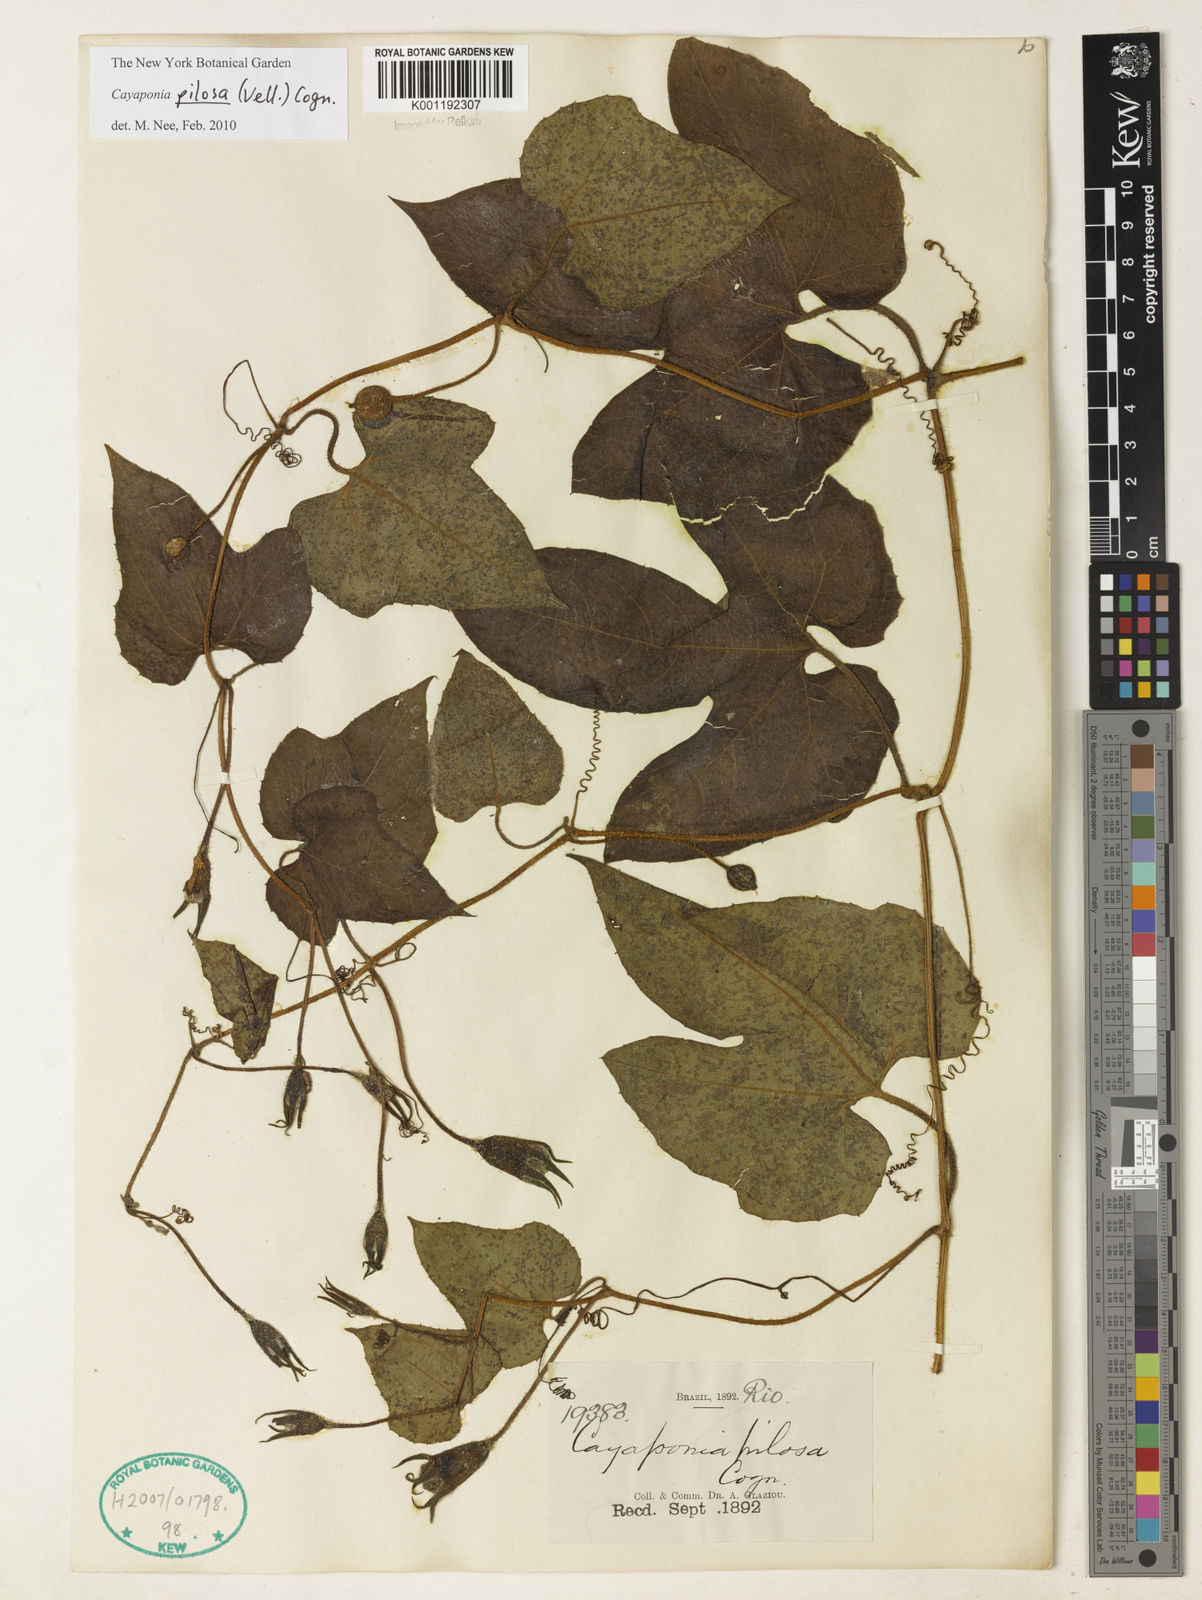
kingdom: Plantae
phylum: Tracheophyta
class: Magnoliopsida
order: Cucurbitales
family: Cucurbitaceae
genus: Cayaponia
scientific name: Cayaponia pilosa
